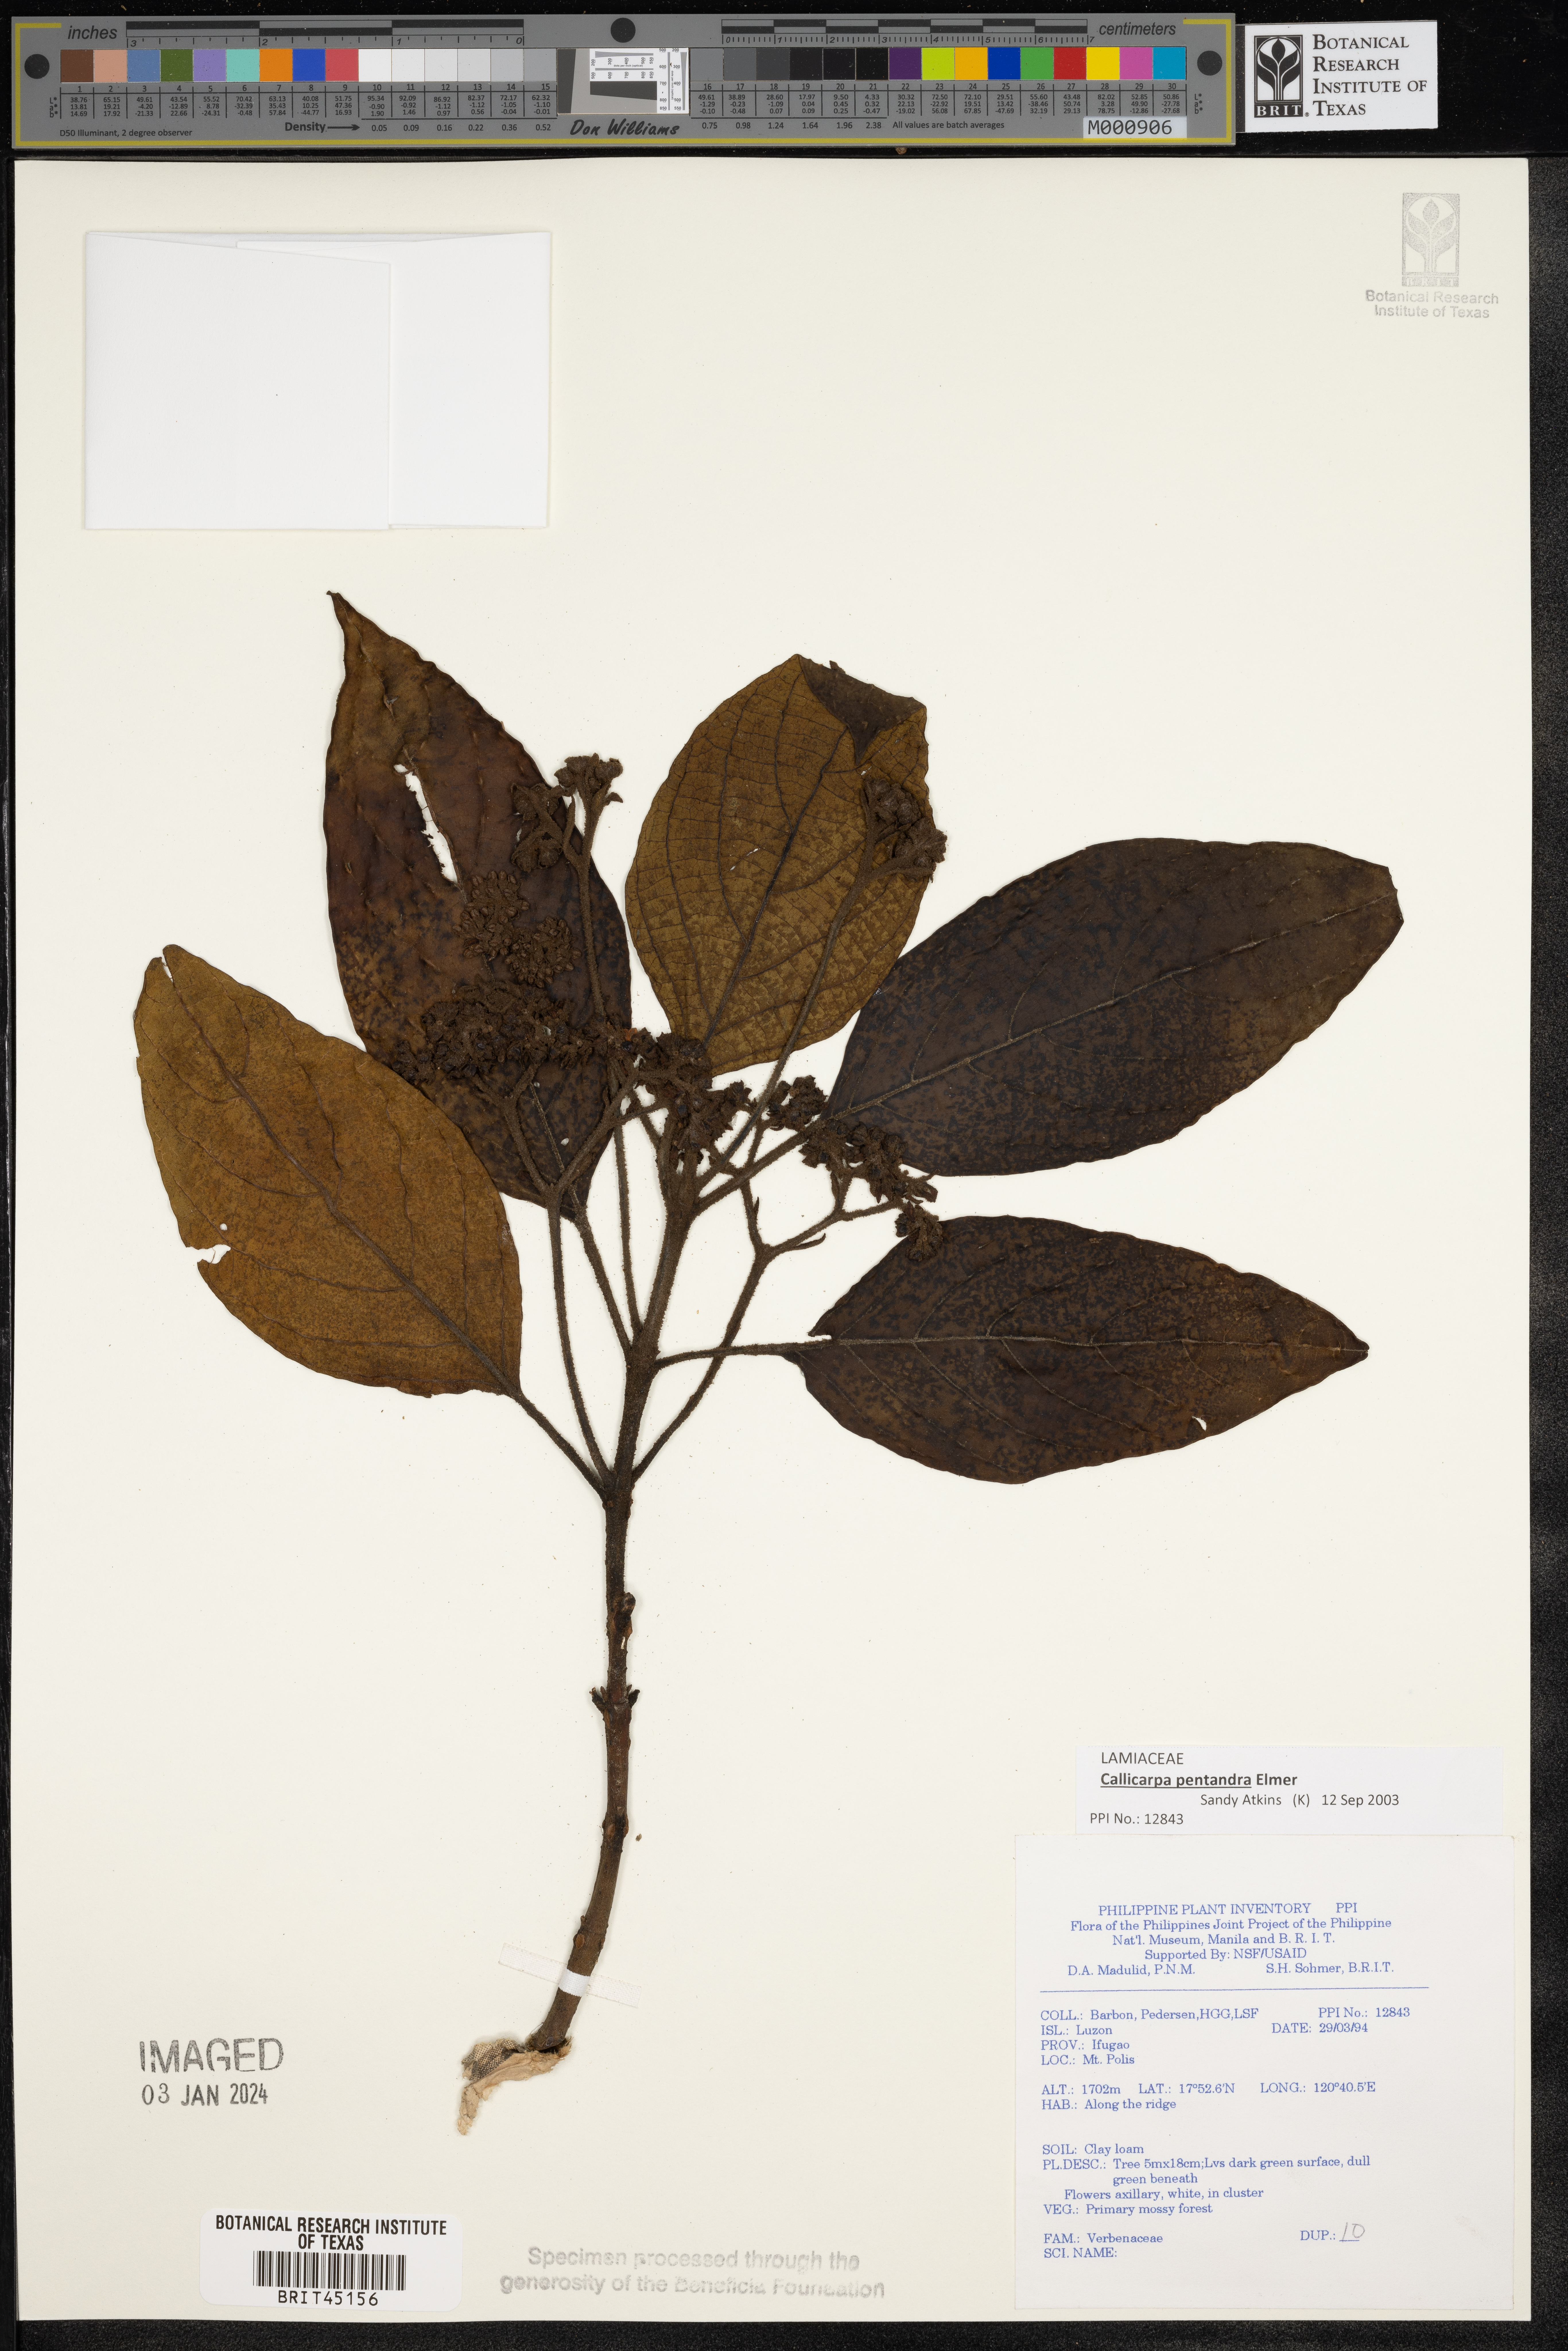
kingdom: Plantae
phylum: Tracheophyta
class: Magnoliopsida
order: Lamiales
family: Verbenaceae
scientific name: Verbenaceae
